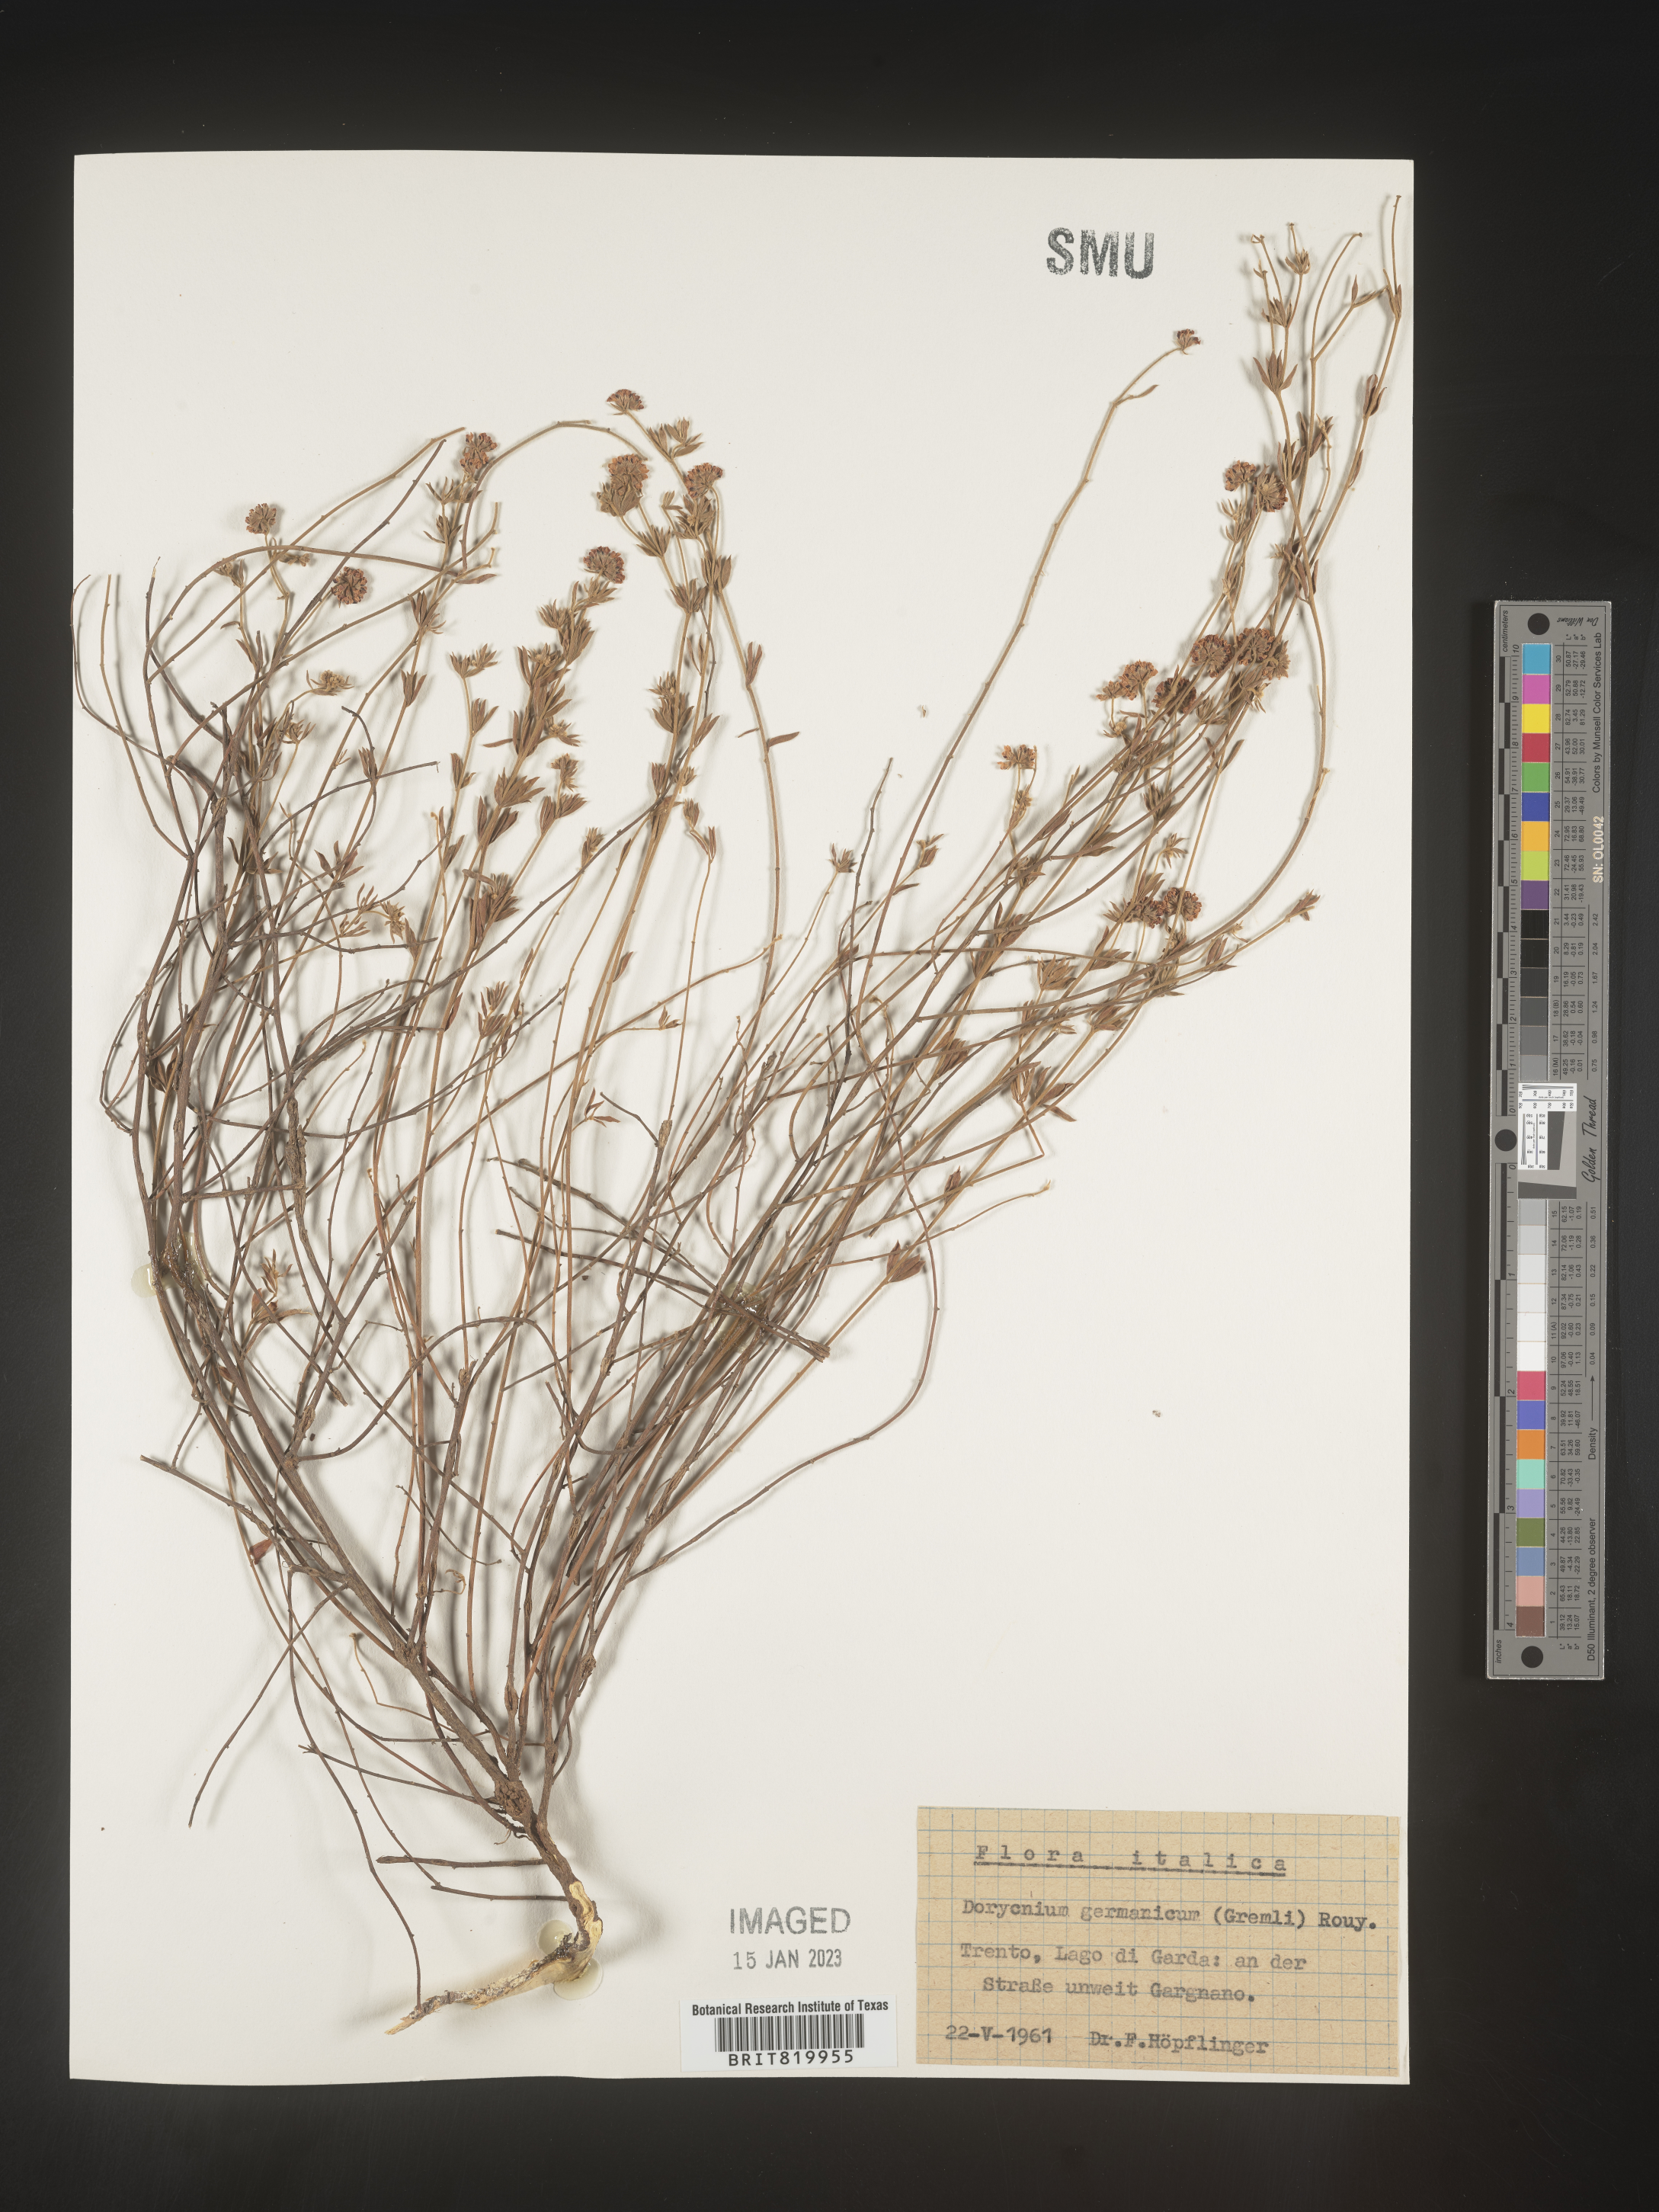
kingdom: Plantae
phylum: Tracheophyta
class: Magnoliopsida
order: Fabales
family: Fabaceae
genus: Lotus
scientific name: Lotus
